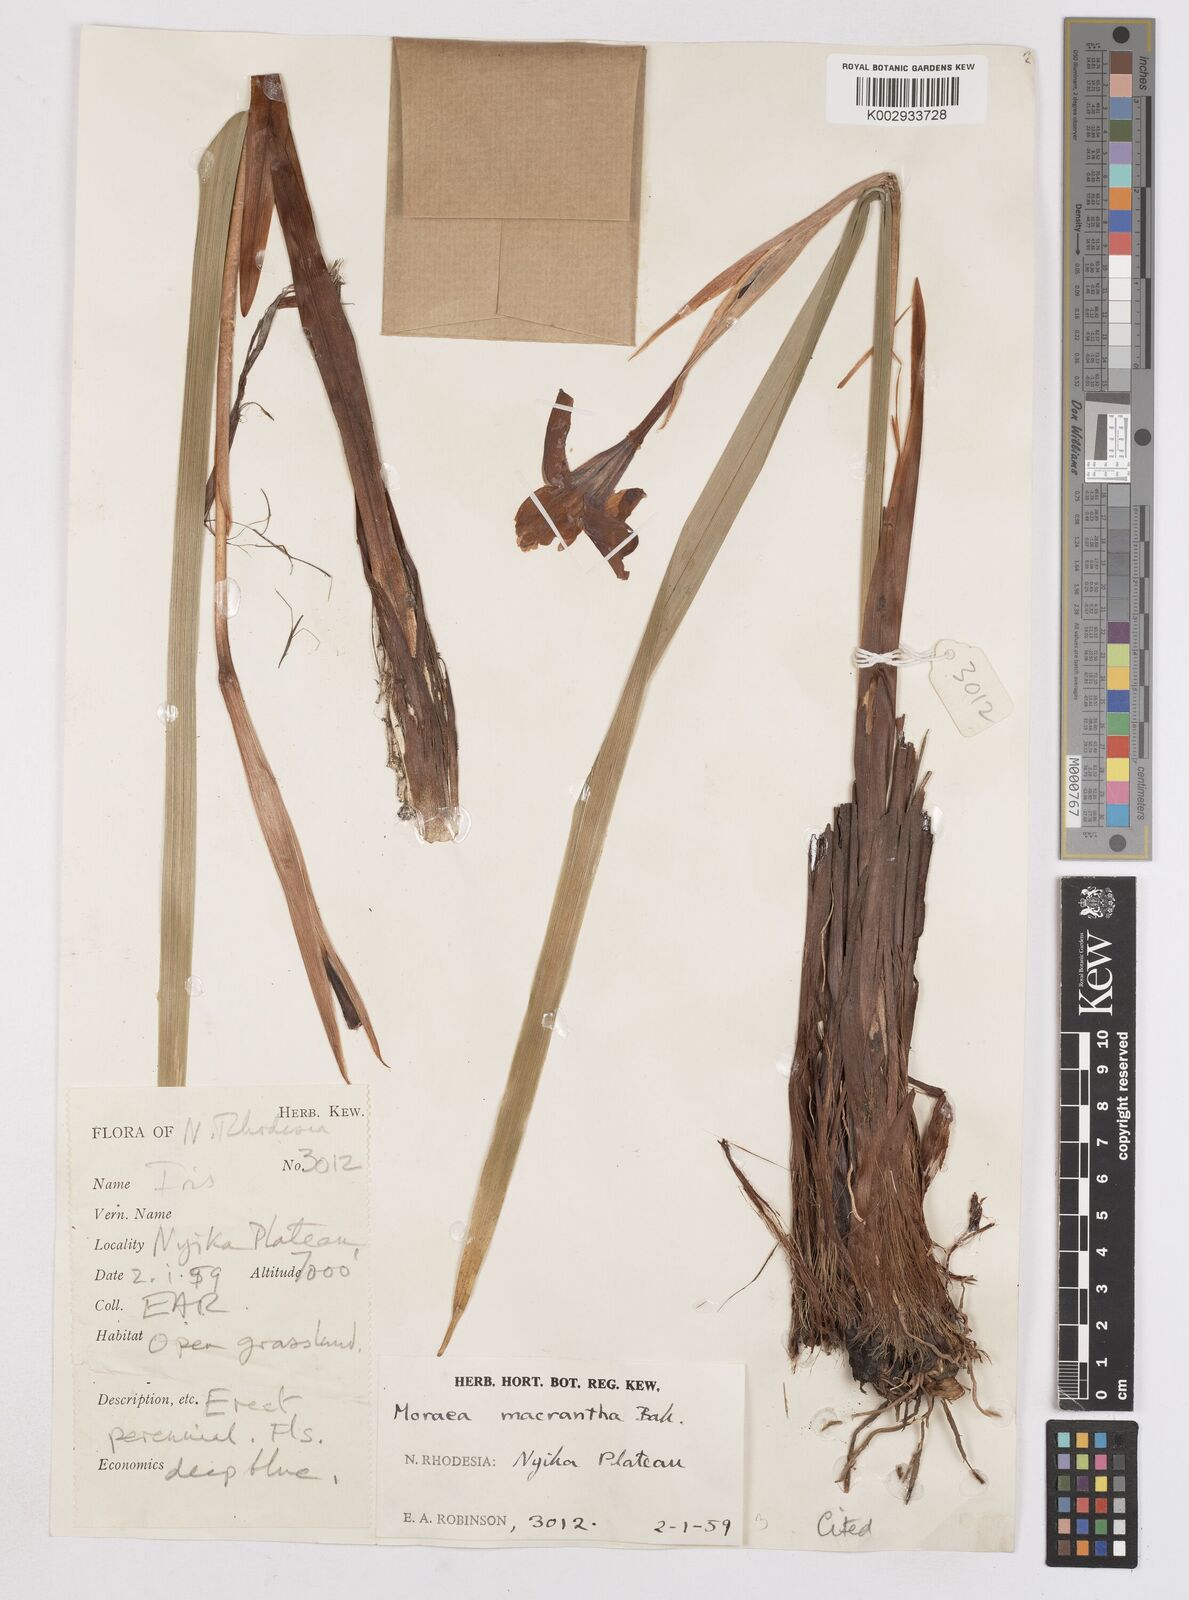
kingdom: Plantae
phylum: Tracheophyta
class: Liliopsida
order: Asparagales
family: Iridaceae
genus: Moraea
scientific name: Moraea schimperi
